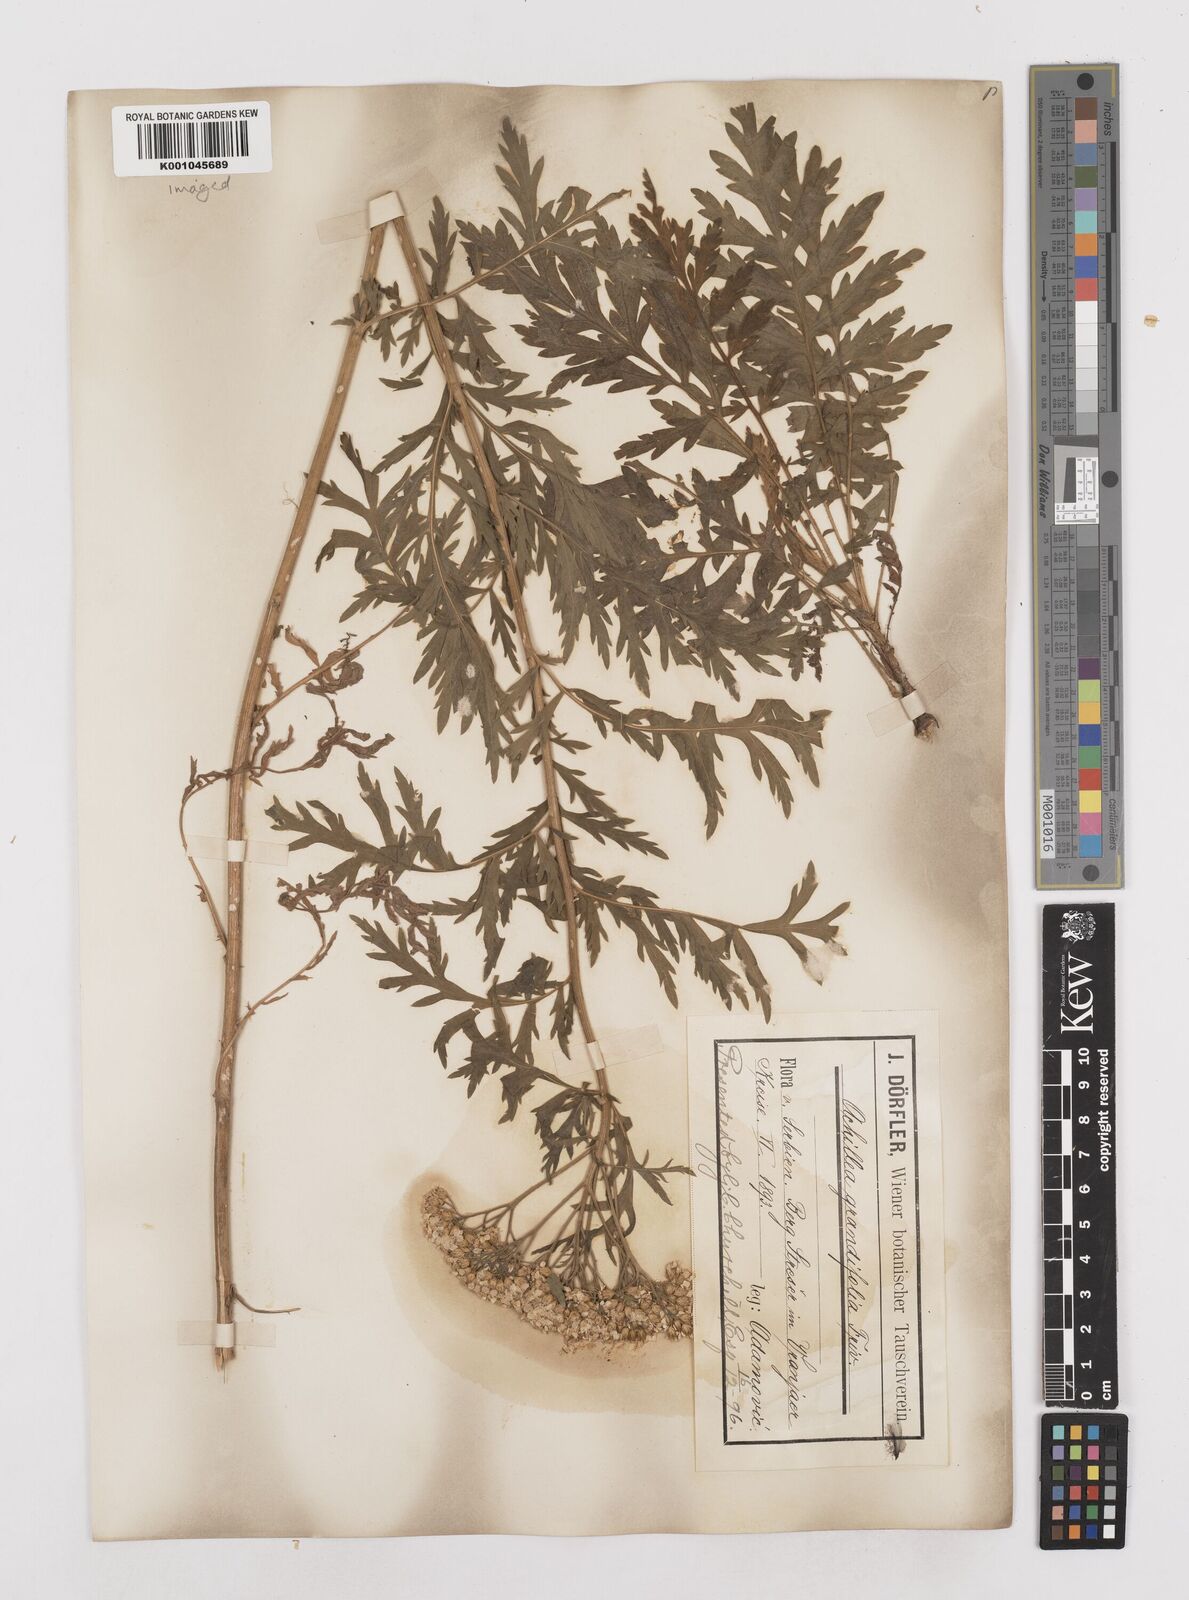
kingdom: Plantae
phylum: Tracheophyta
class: Magnoliopsida
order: Asterales
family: Asteraceae
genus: Achillea
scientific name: Achillea ptarmica
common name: Sneezeweed
